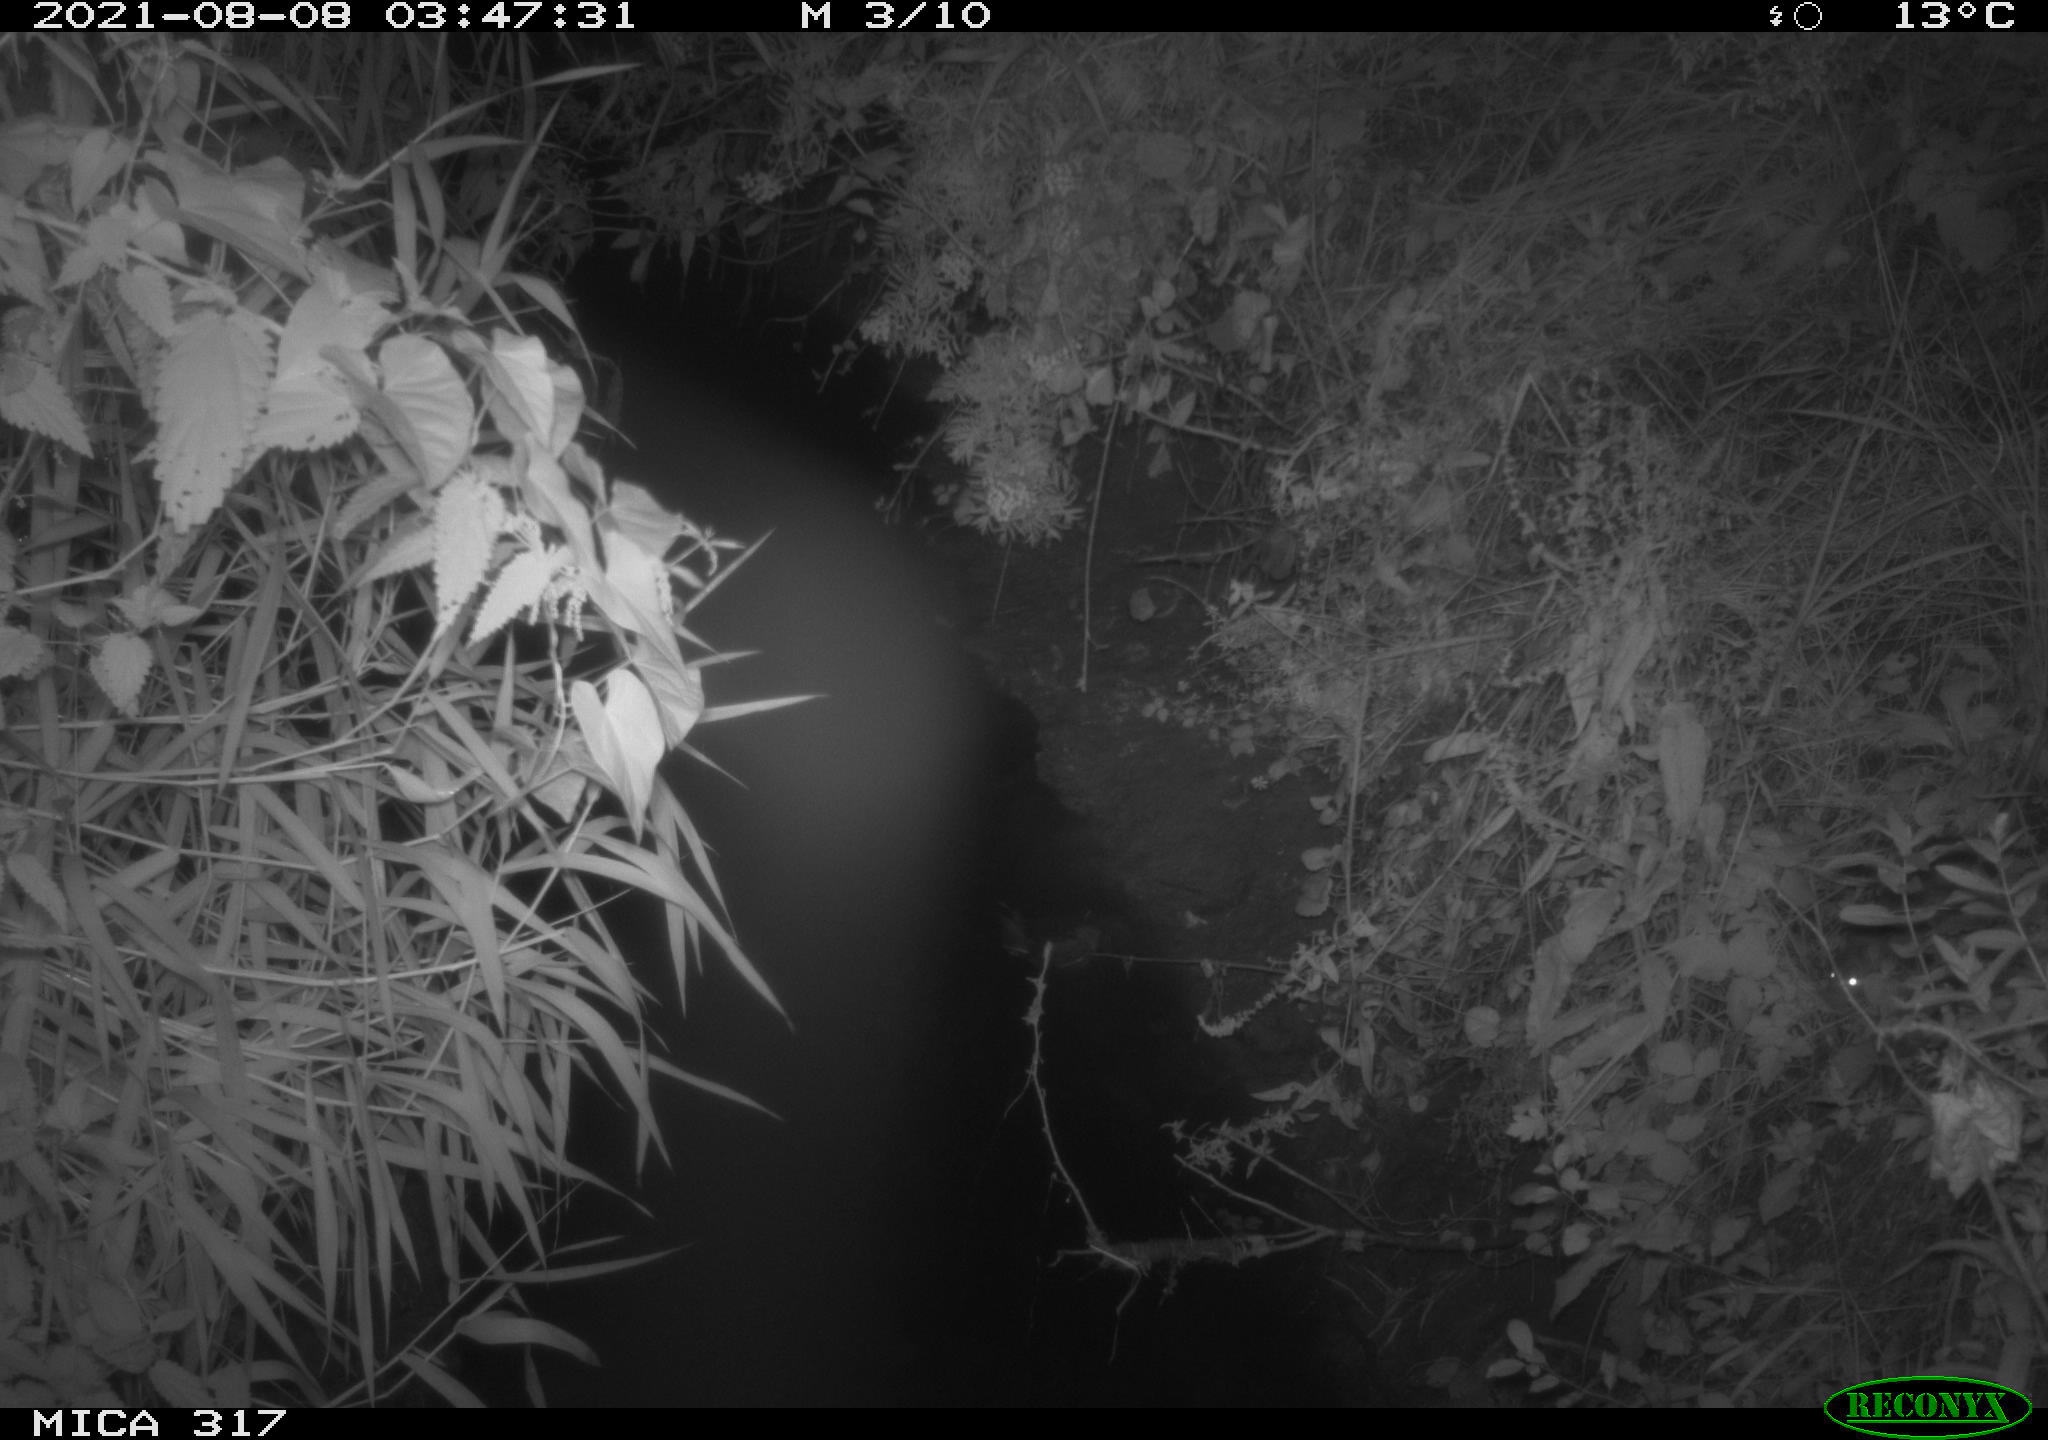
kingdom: Animalia
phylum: Chordata
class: Mammalia
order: Rodentia
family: Muridae
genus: Rattus
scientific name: Rattus norvegicus
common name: Brown rat
